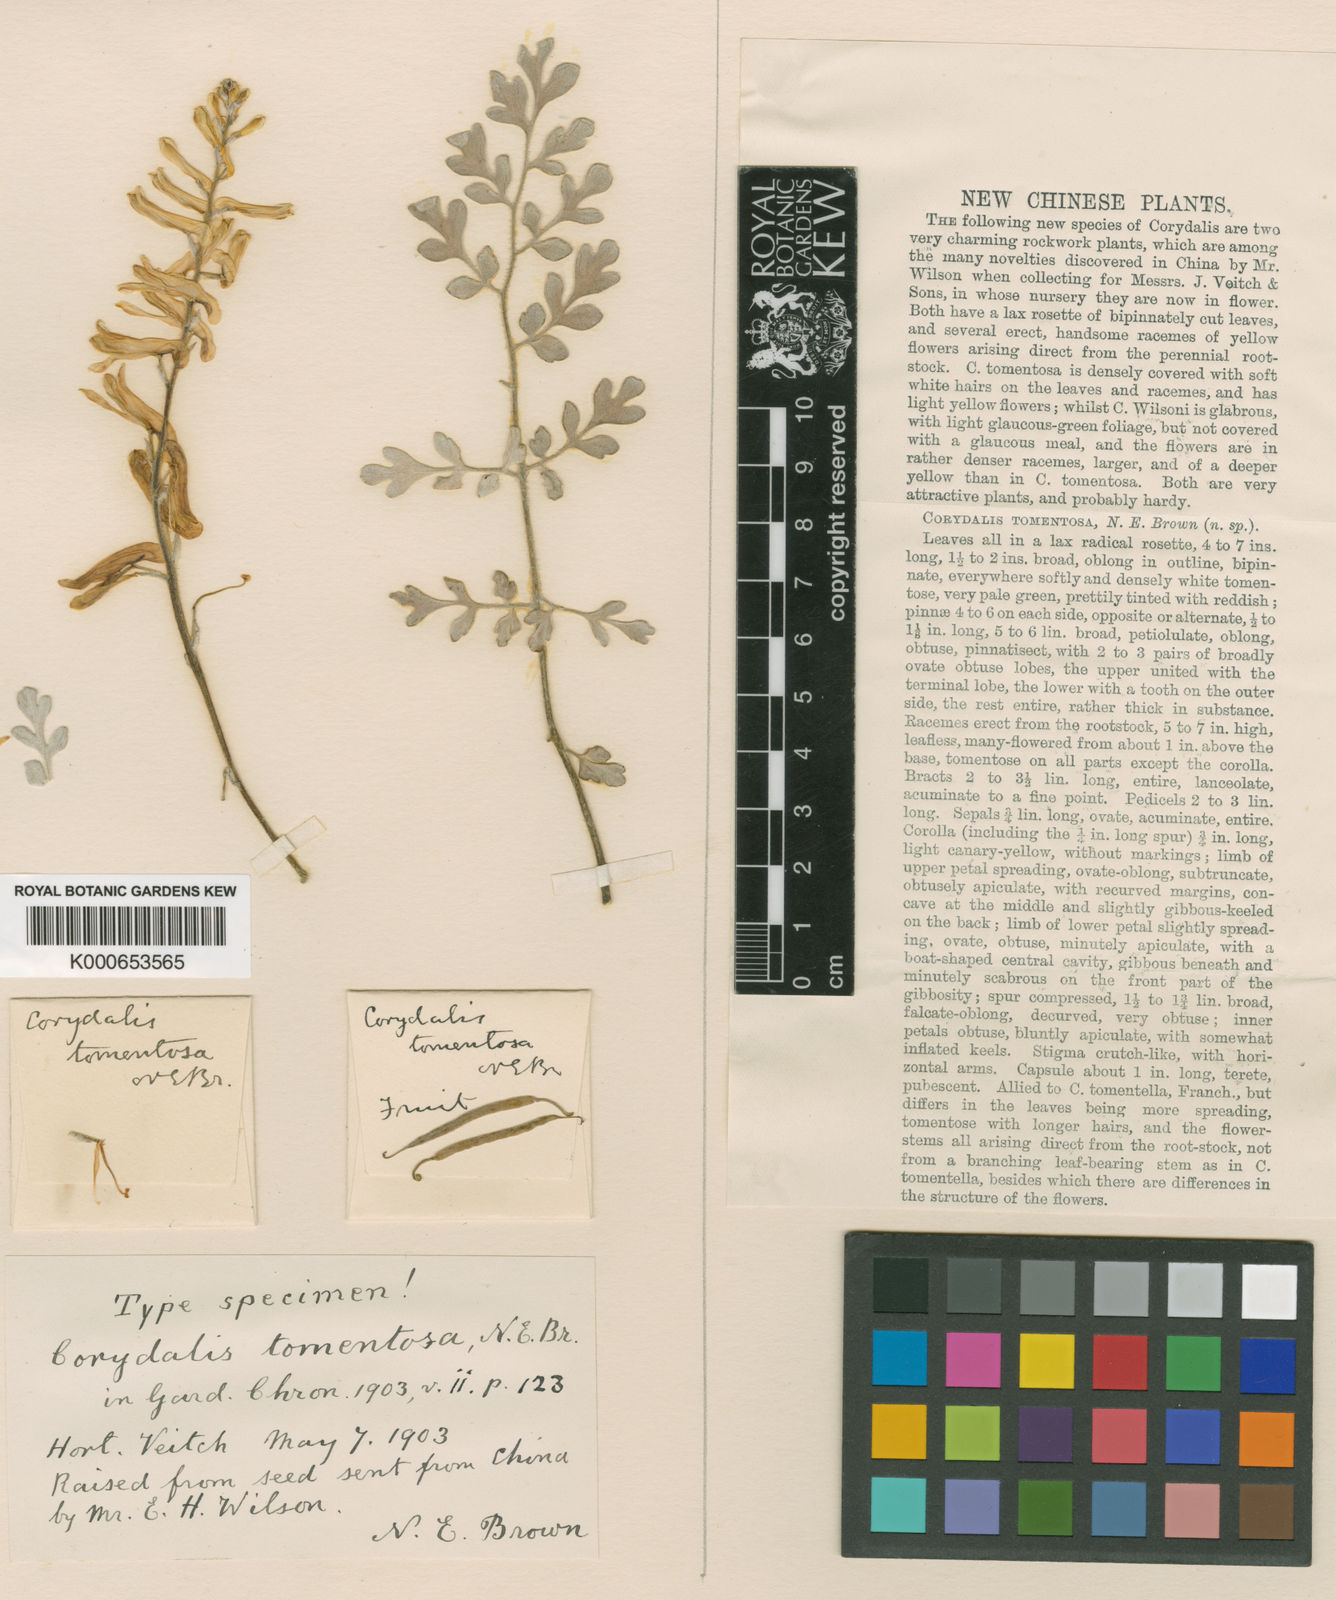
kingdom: Plantae
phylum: Tracheophyta
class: Magnoliopsida
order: Ranunculales
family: Papaveraceae
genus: Corydalis
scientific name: Corydalis tomentella
